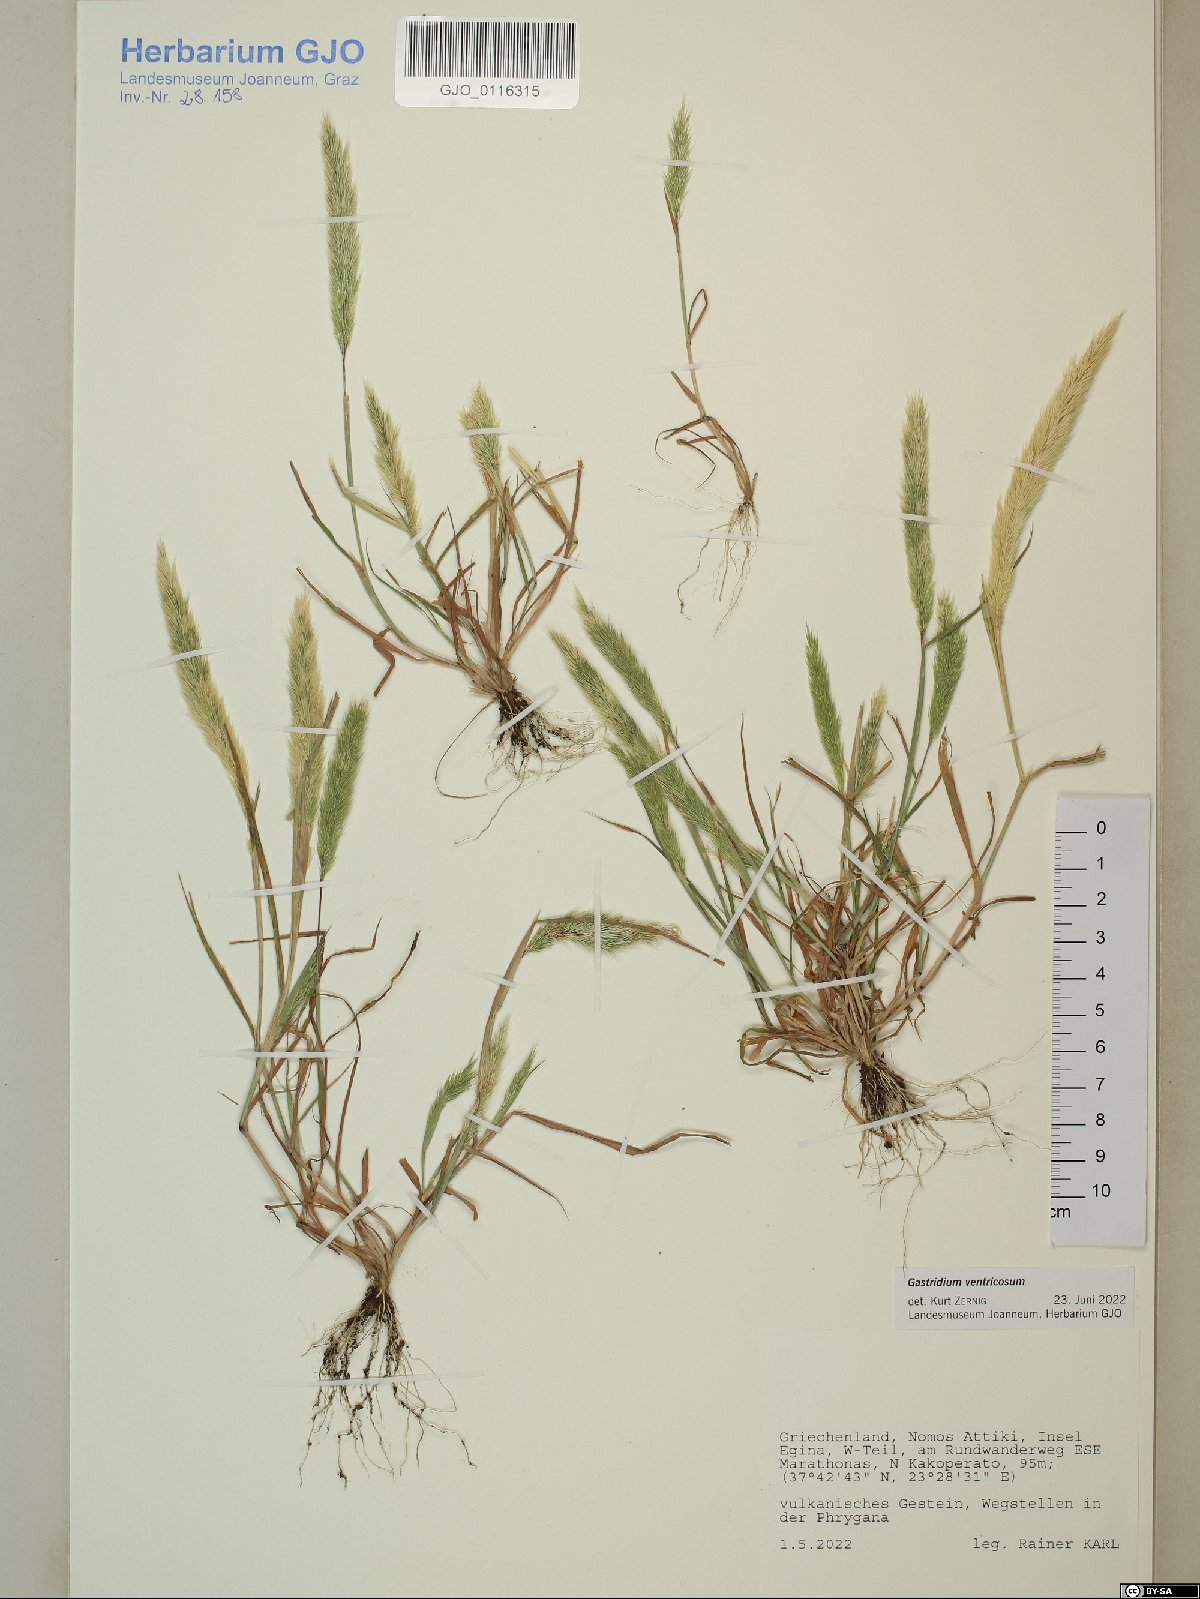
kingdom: Plantae
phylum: Tracheophyta
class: Liliopsida
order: Poales
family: Poaceae
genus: Gastridium
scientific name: Gastridium ventricosum
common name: Nit-grass
